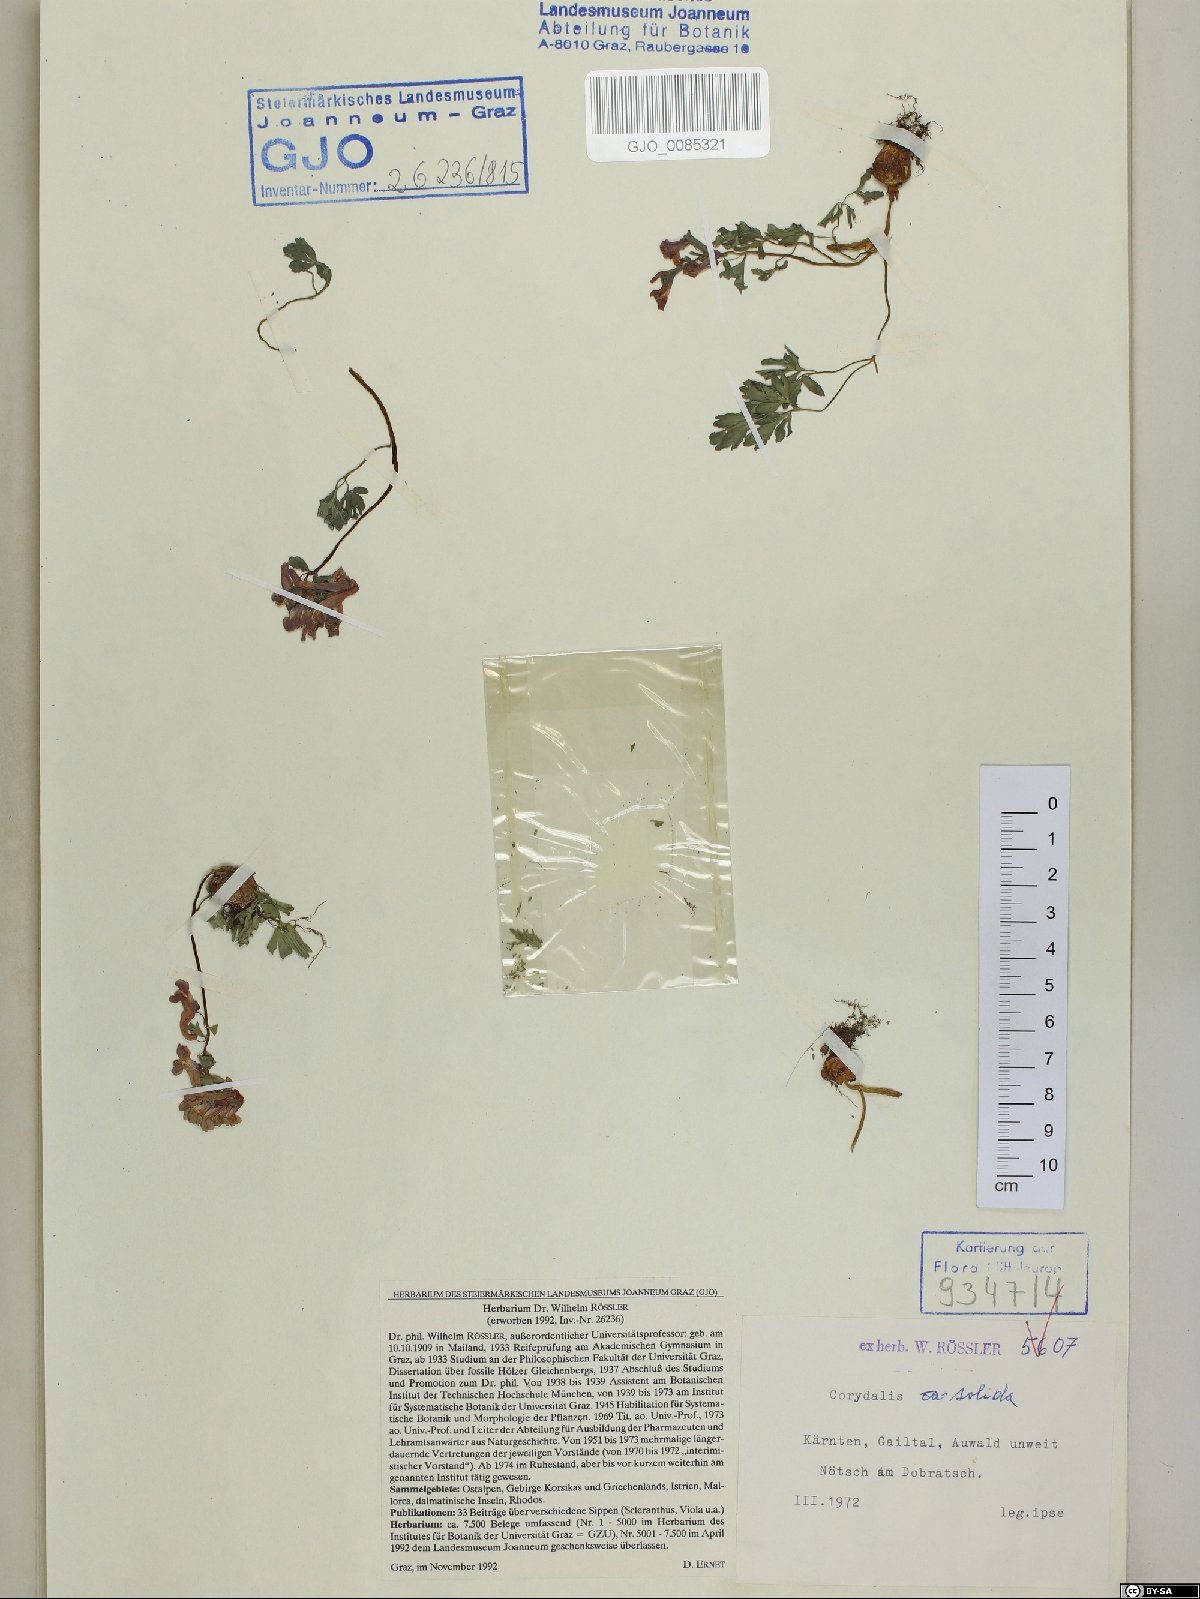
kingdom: Plantae
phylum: Tracheophyta
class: Magnoliopsida
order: Ranunculales
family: Papaveraceae
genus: Corydalis
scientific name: Corydalis solida
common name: Bird-in-a-bush
